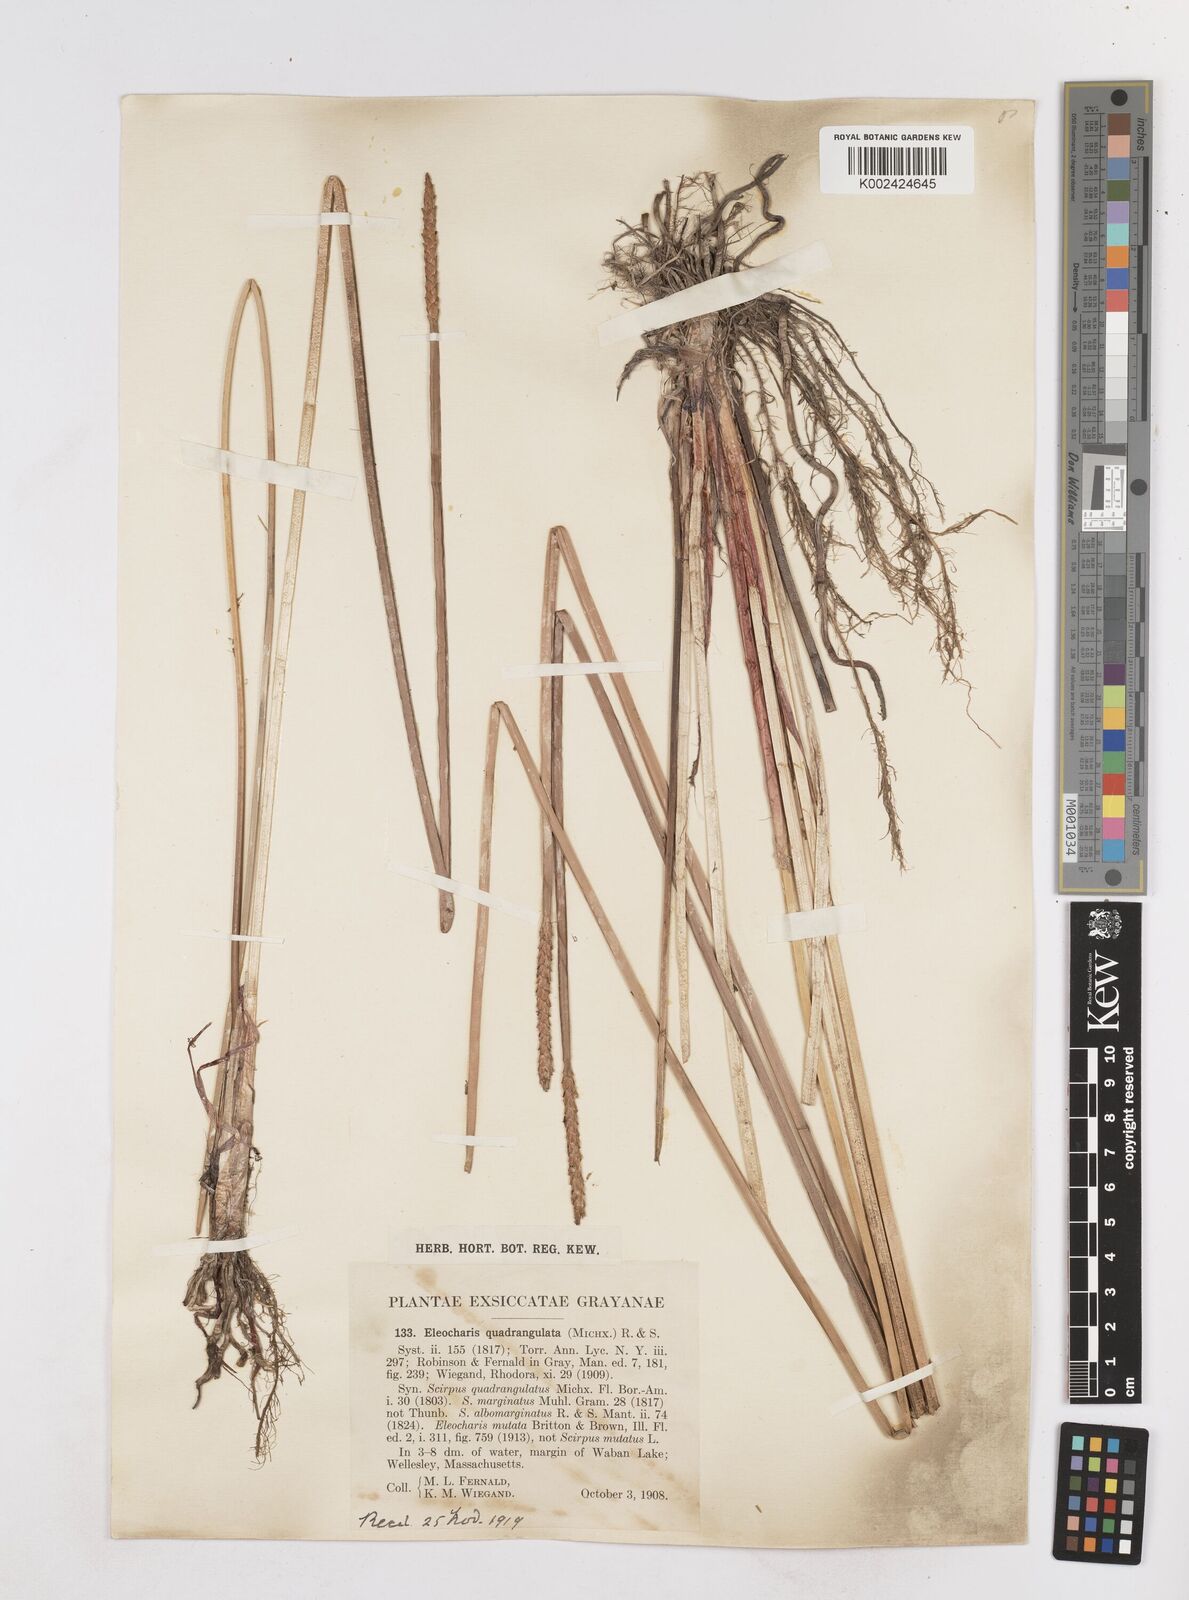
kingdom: Plantae
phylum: Tracheophyta
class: Liliopsida
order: Poales
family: Cyperaceae
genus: Eleocharis
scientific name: Eleocharis quadrangulata
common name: Square-stem spike-rush
